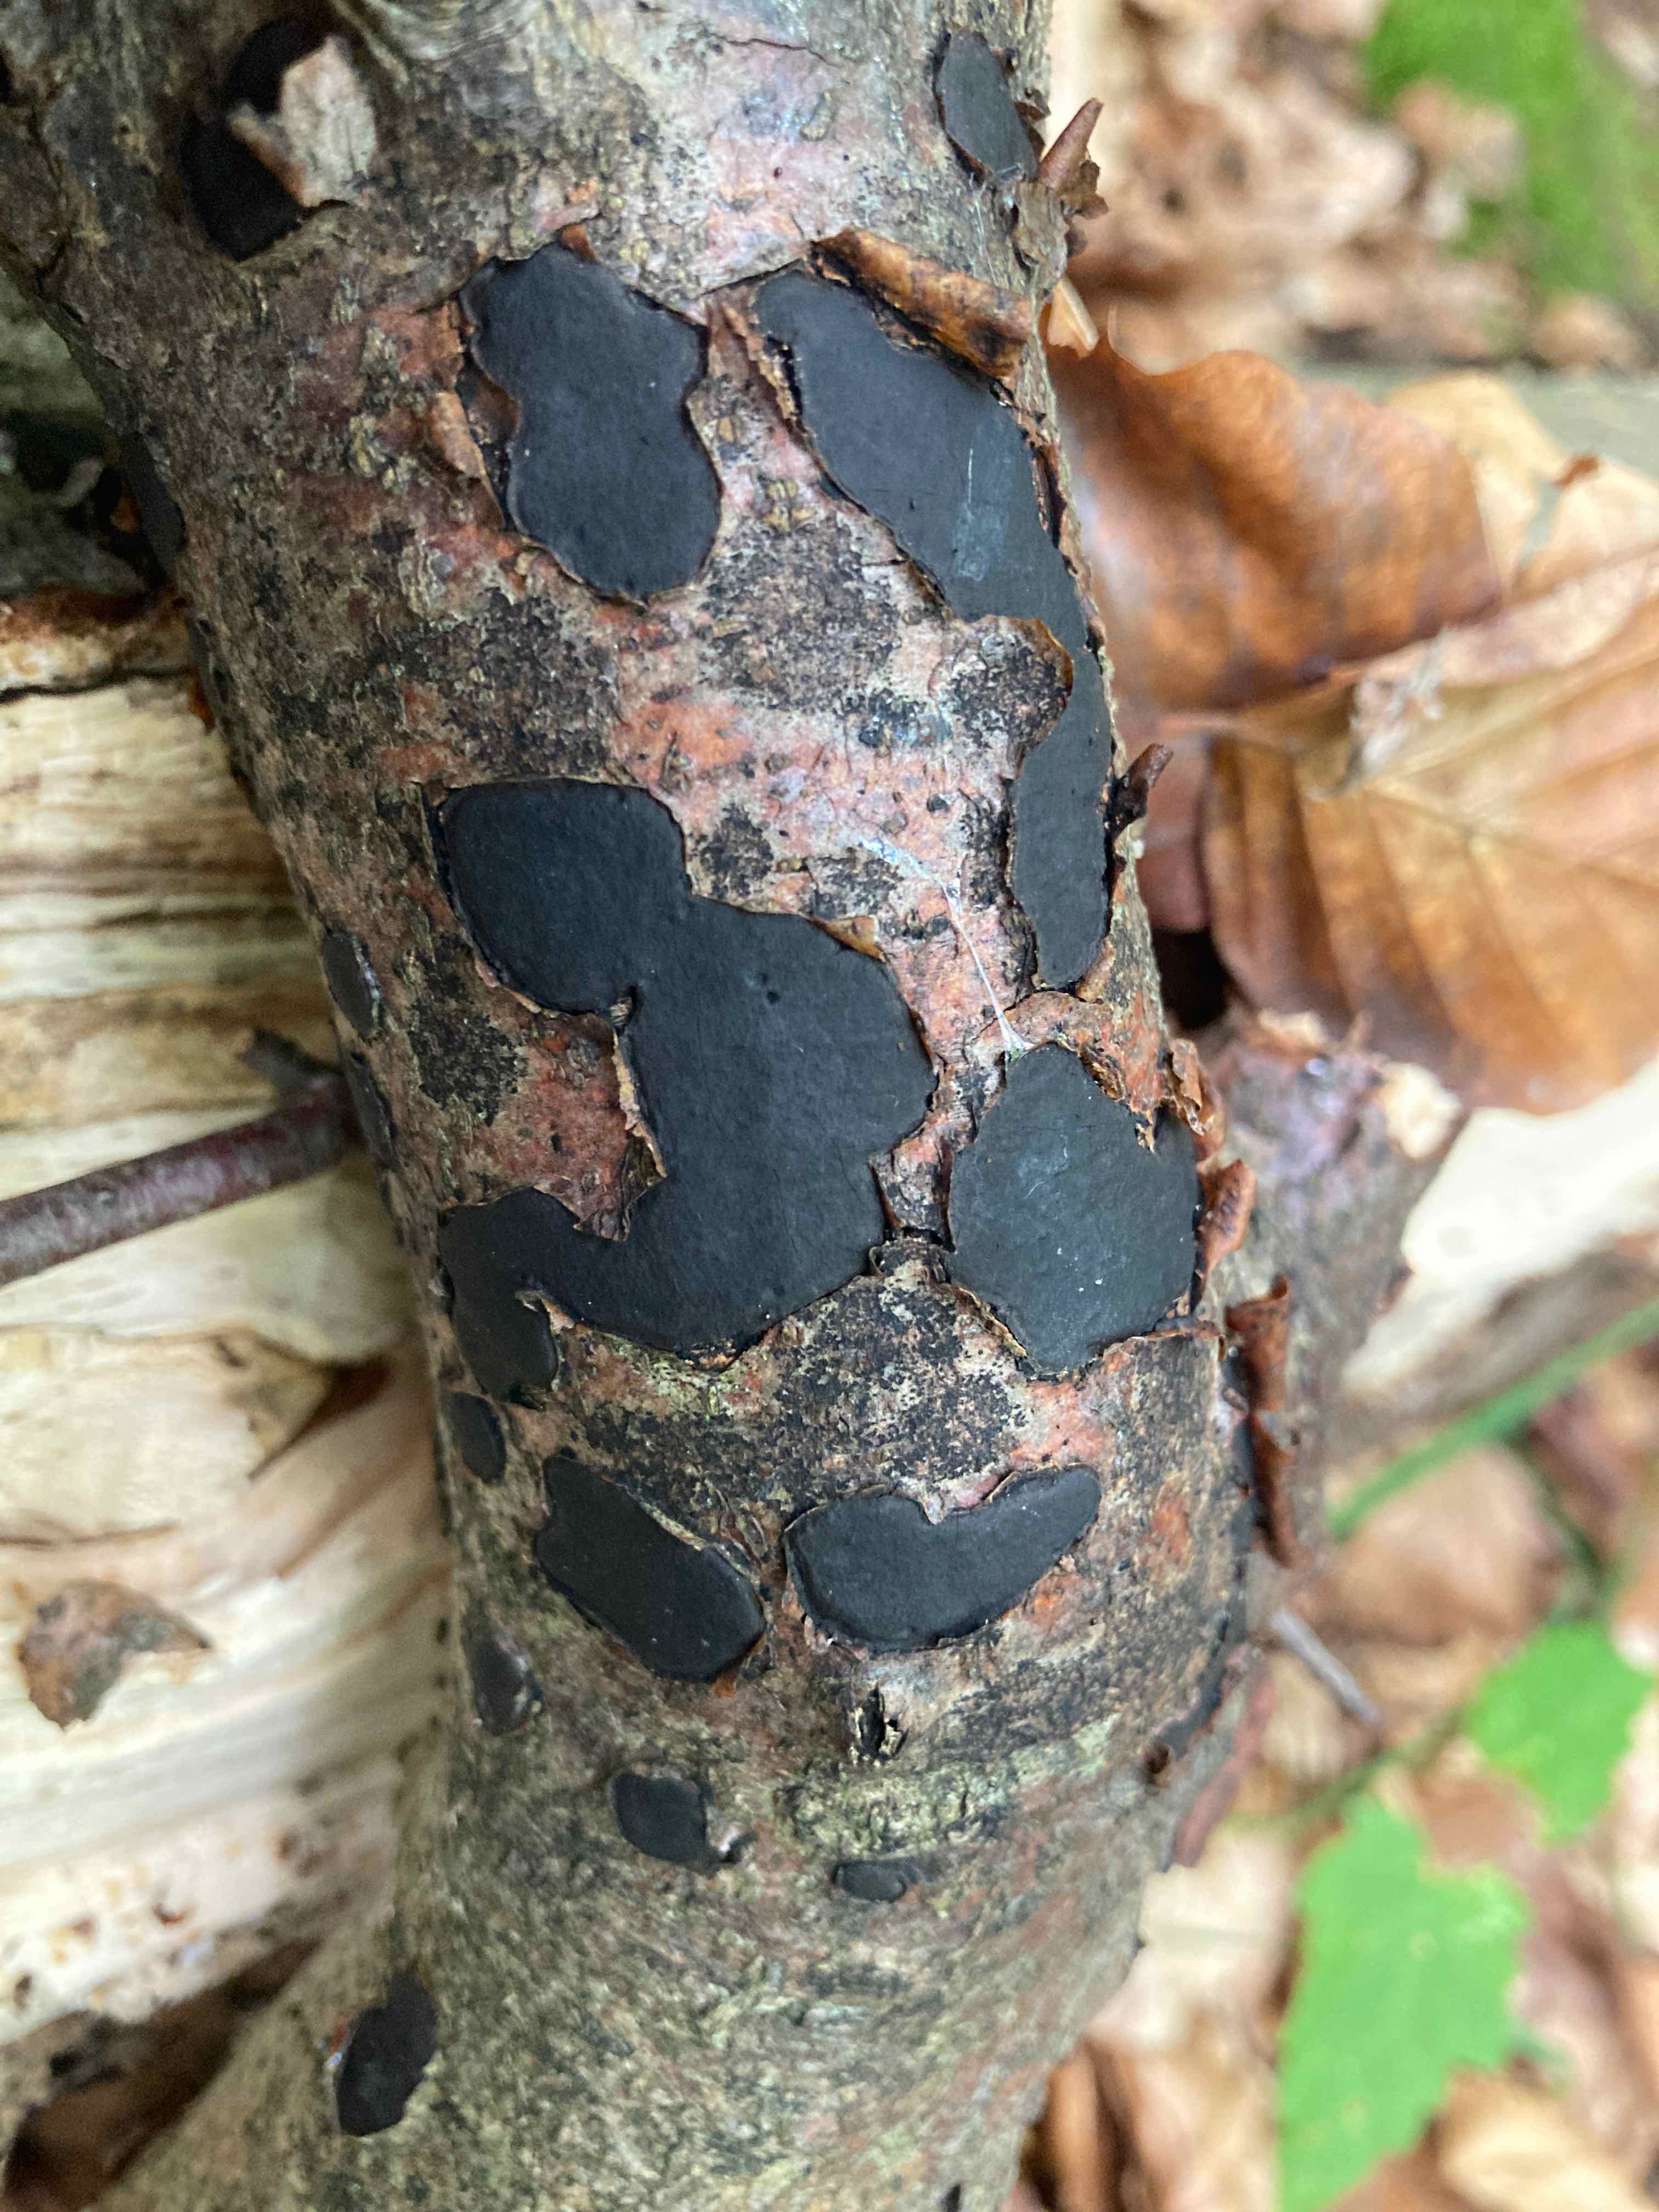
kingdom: Fungi
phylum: Ascomycota
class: Sordariomycetes
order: Xylariales
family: Graphostromataceae
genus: Biscogniauxia
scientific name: Biscogniauxia nummularia
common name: bøge-kulskive
